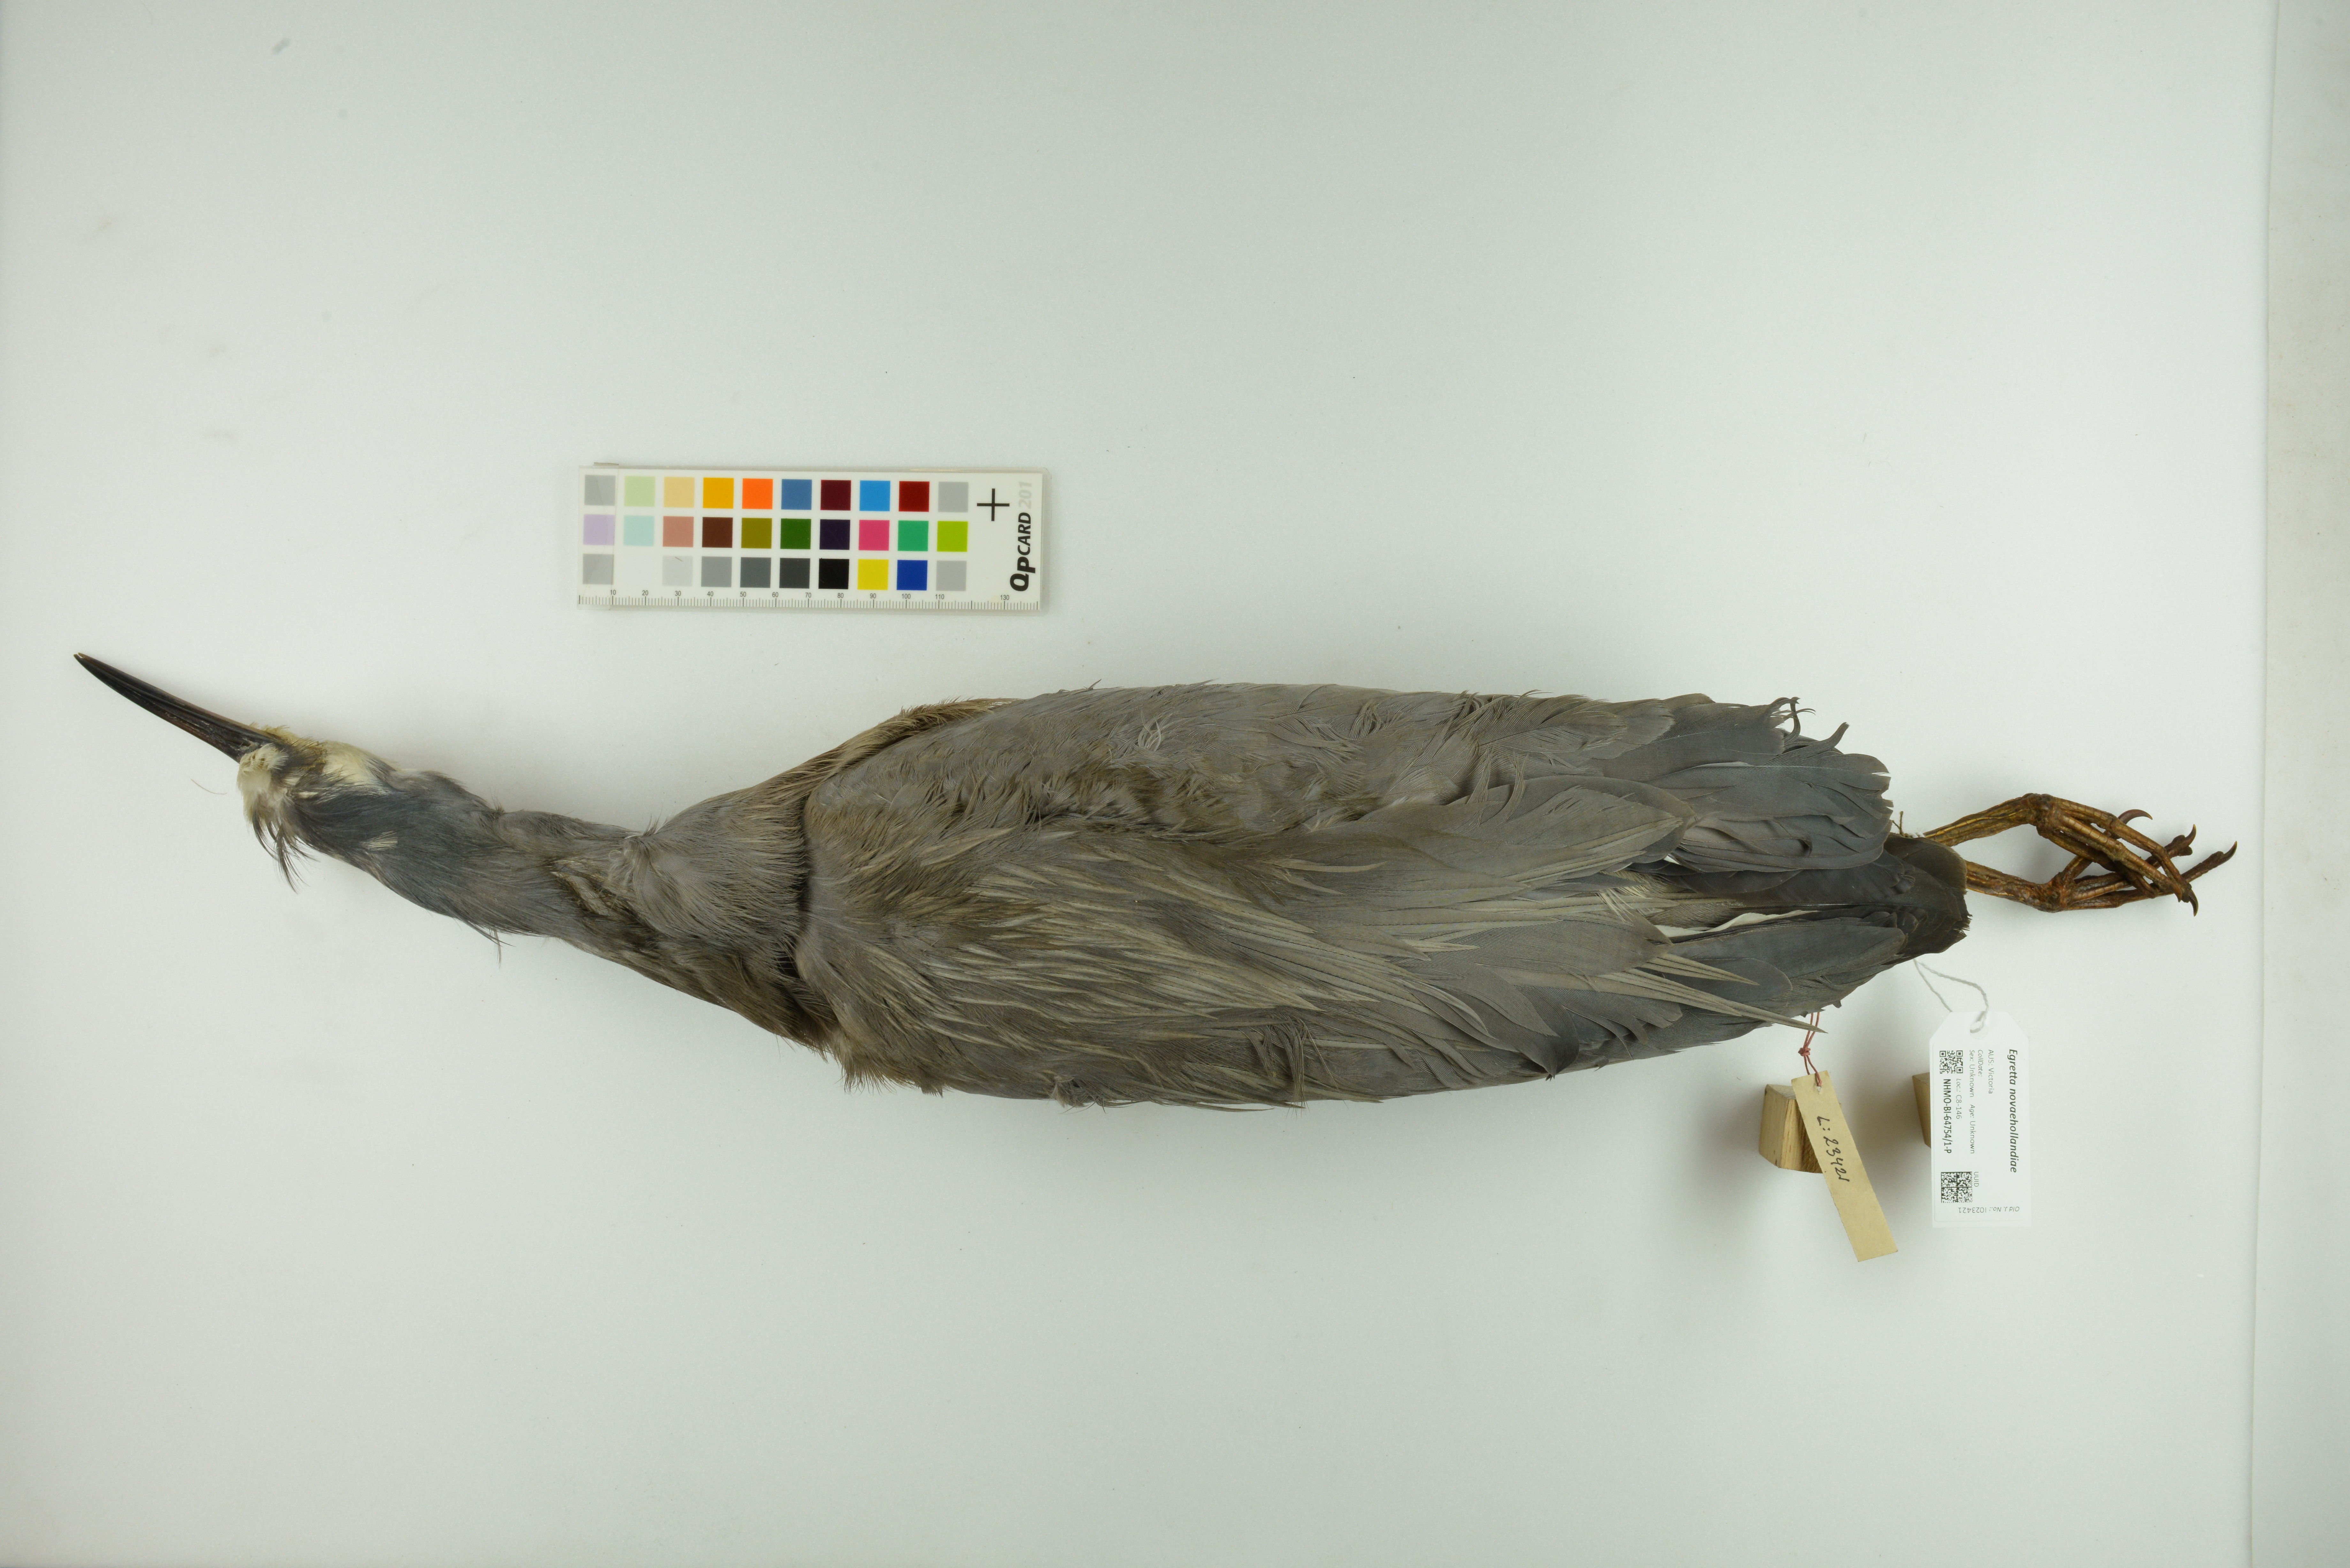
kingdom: Animalia
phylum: Chordata
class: Aves
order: Pelecaniformes
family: Ardeidae
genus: Egretta
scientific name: Egretta novaehollandiae
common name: White-faced heron
